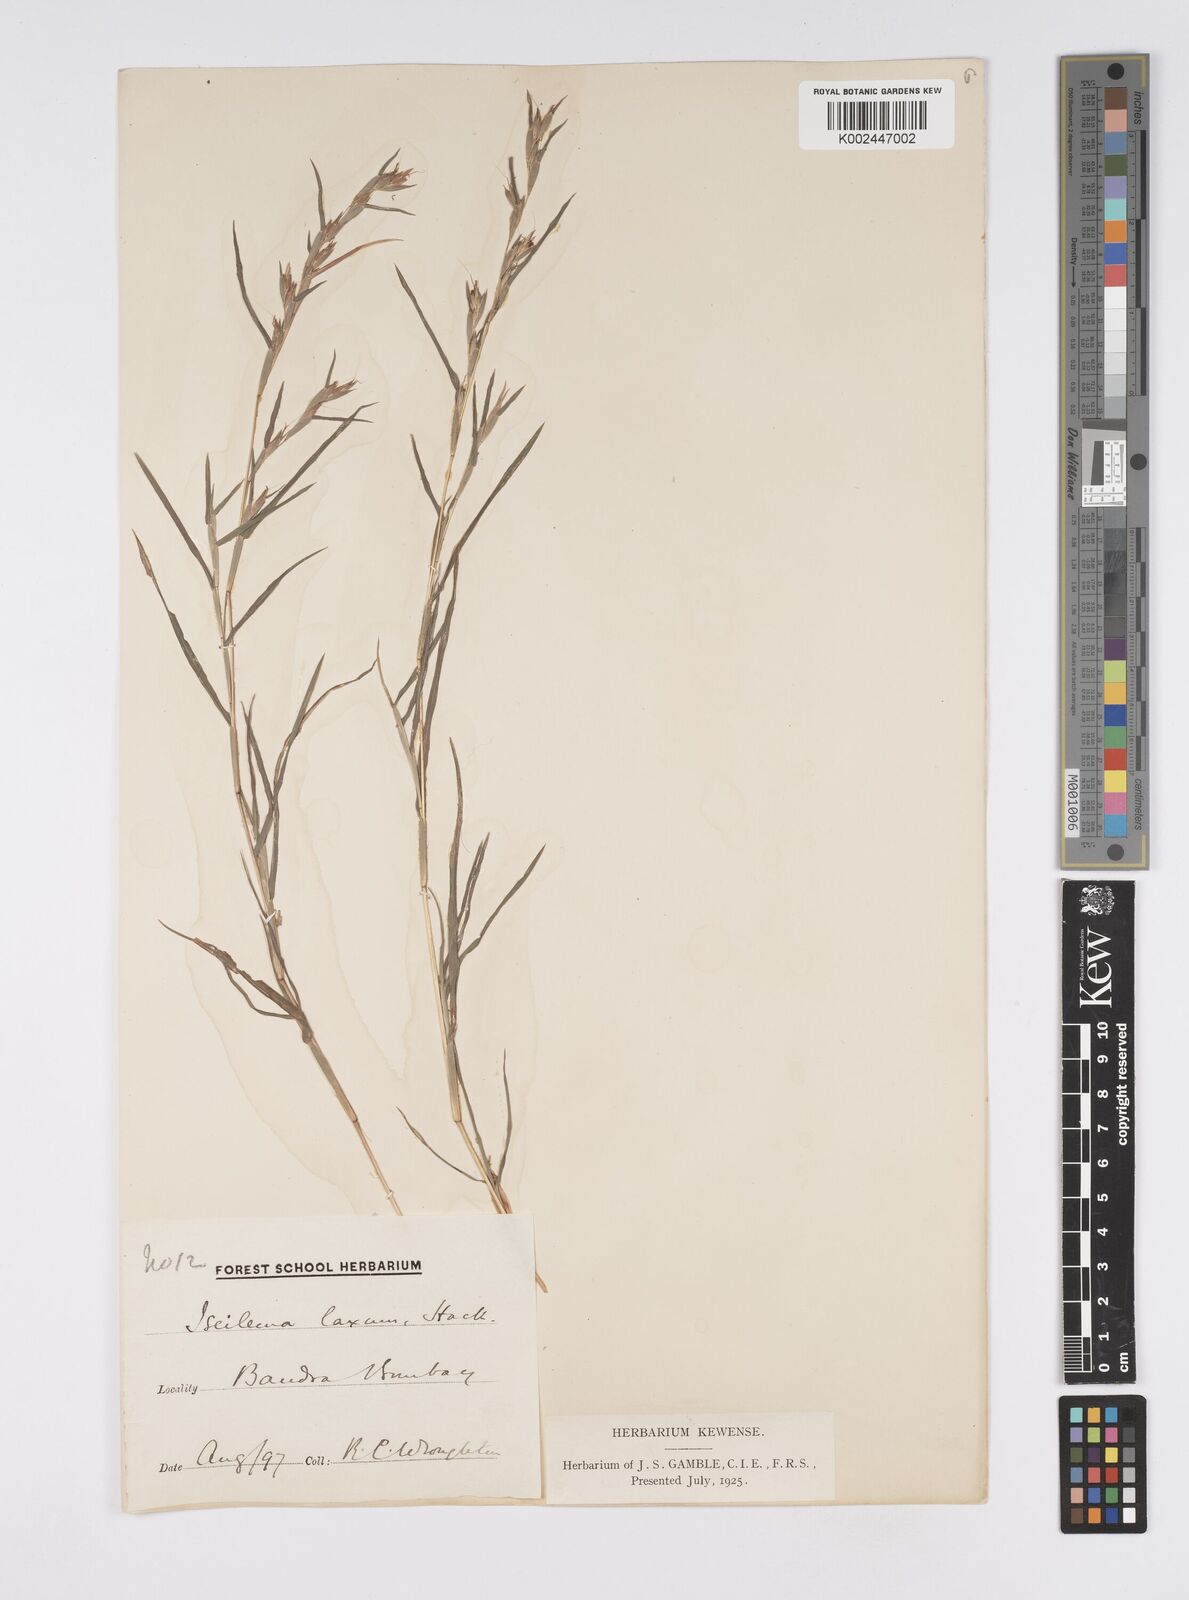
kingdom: Plantae
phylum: Tracheophyta
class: Liliopsida
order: Poales
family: Poaceae
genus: Iseilema
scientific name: Iseilema prostratum
